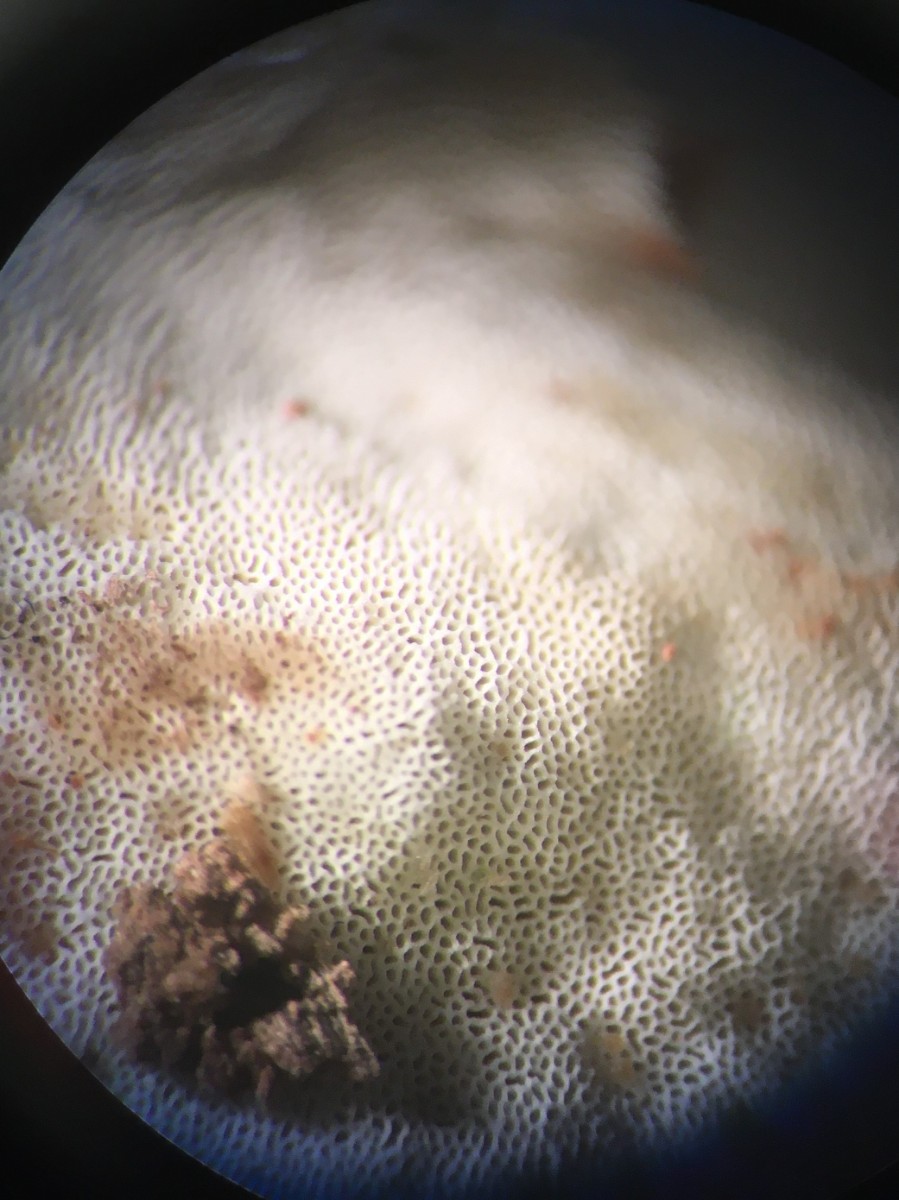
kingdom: Fungi
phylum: Basidiomycota
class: Agaricomycetes
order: Hymenochaetales
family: Rickenellaceae
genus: Sidera
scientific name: Sidera vulgaris
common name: fin flødeporesvamp
